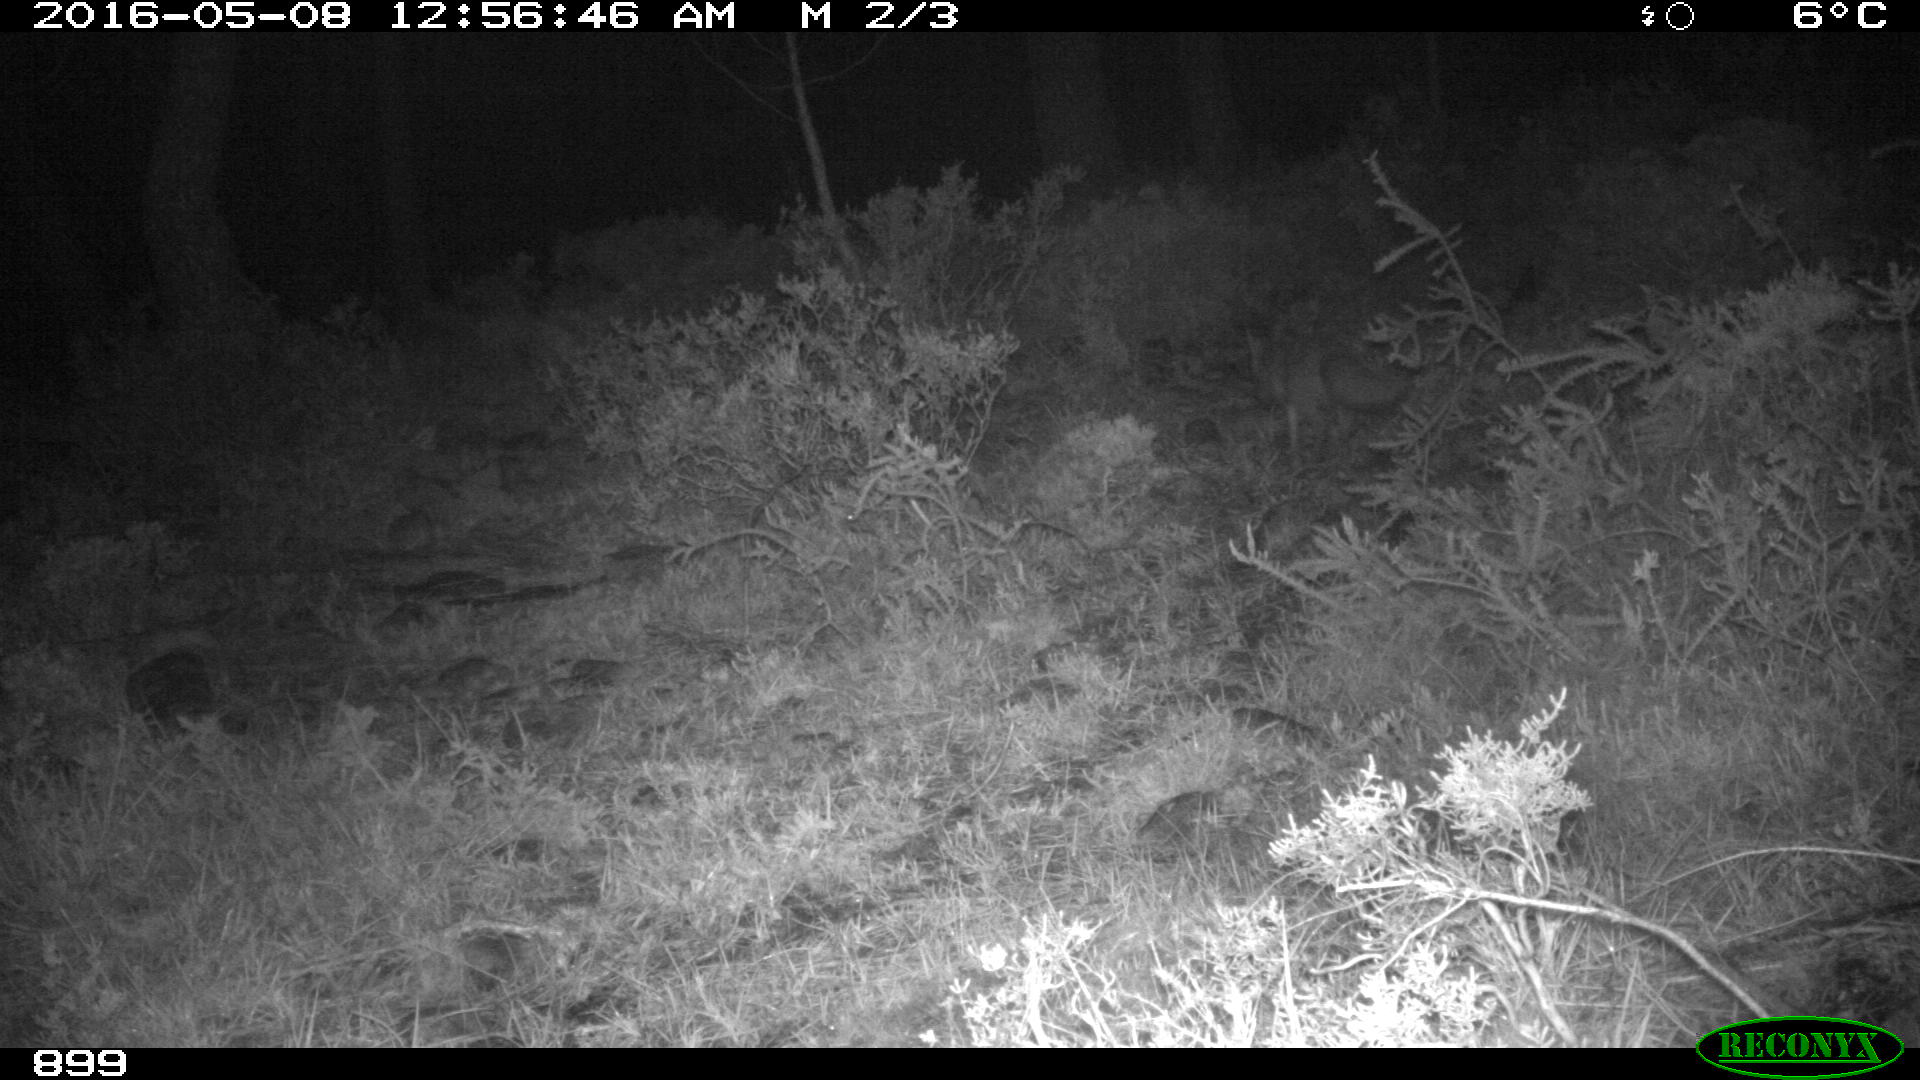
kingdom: Animalia
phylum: Chordata
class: Mammalia
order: Carnivora
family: Canidae
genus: Vulpes
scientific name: Vulpes vulpes
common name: Red fox
